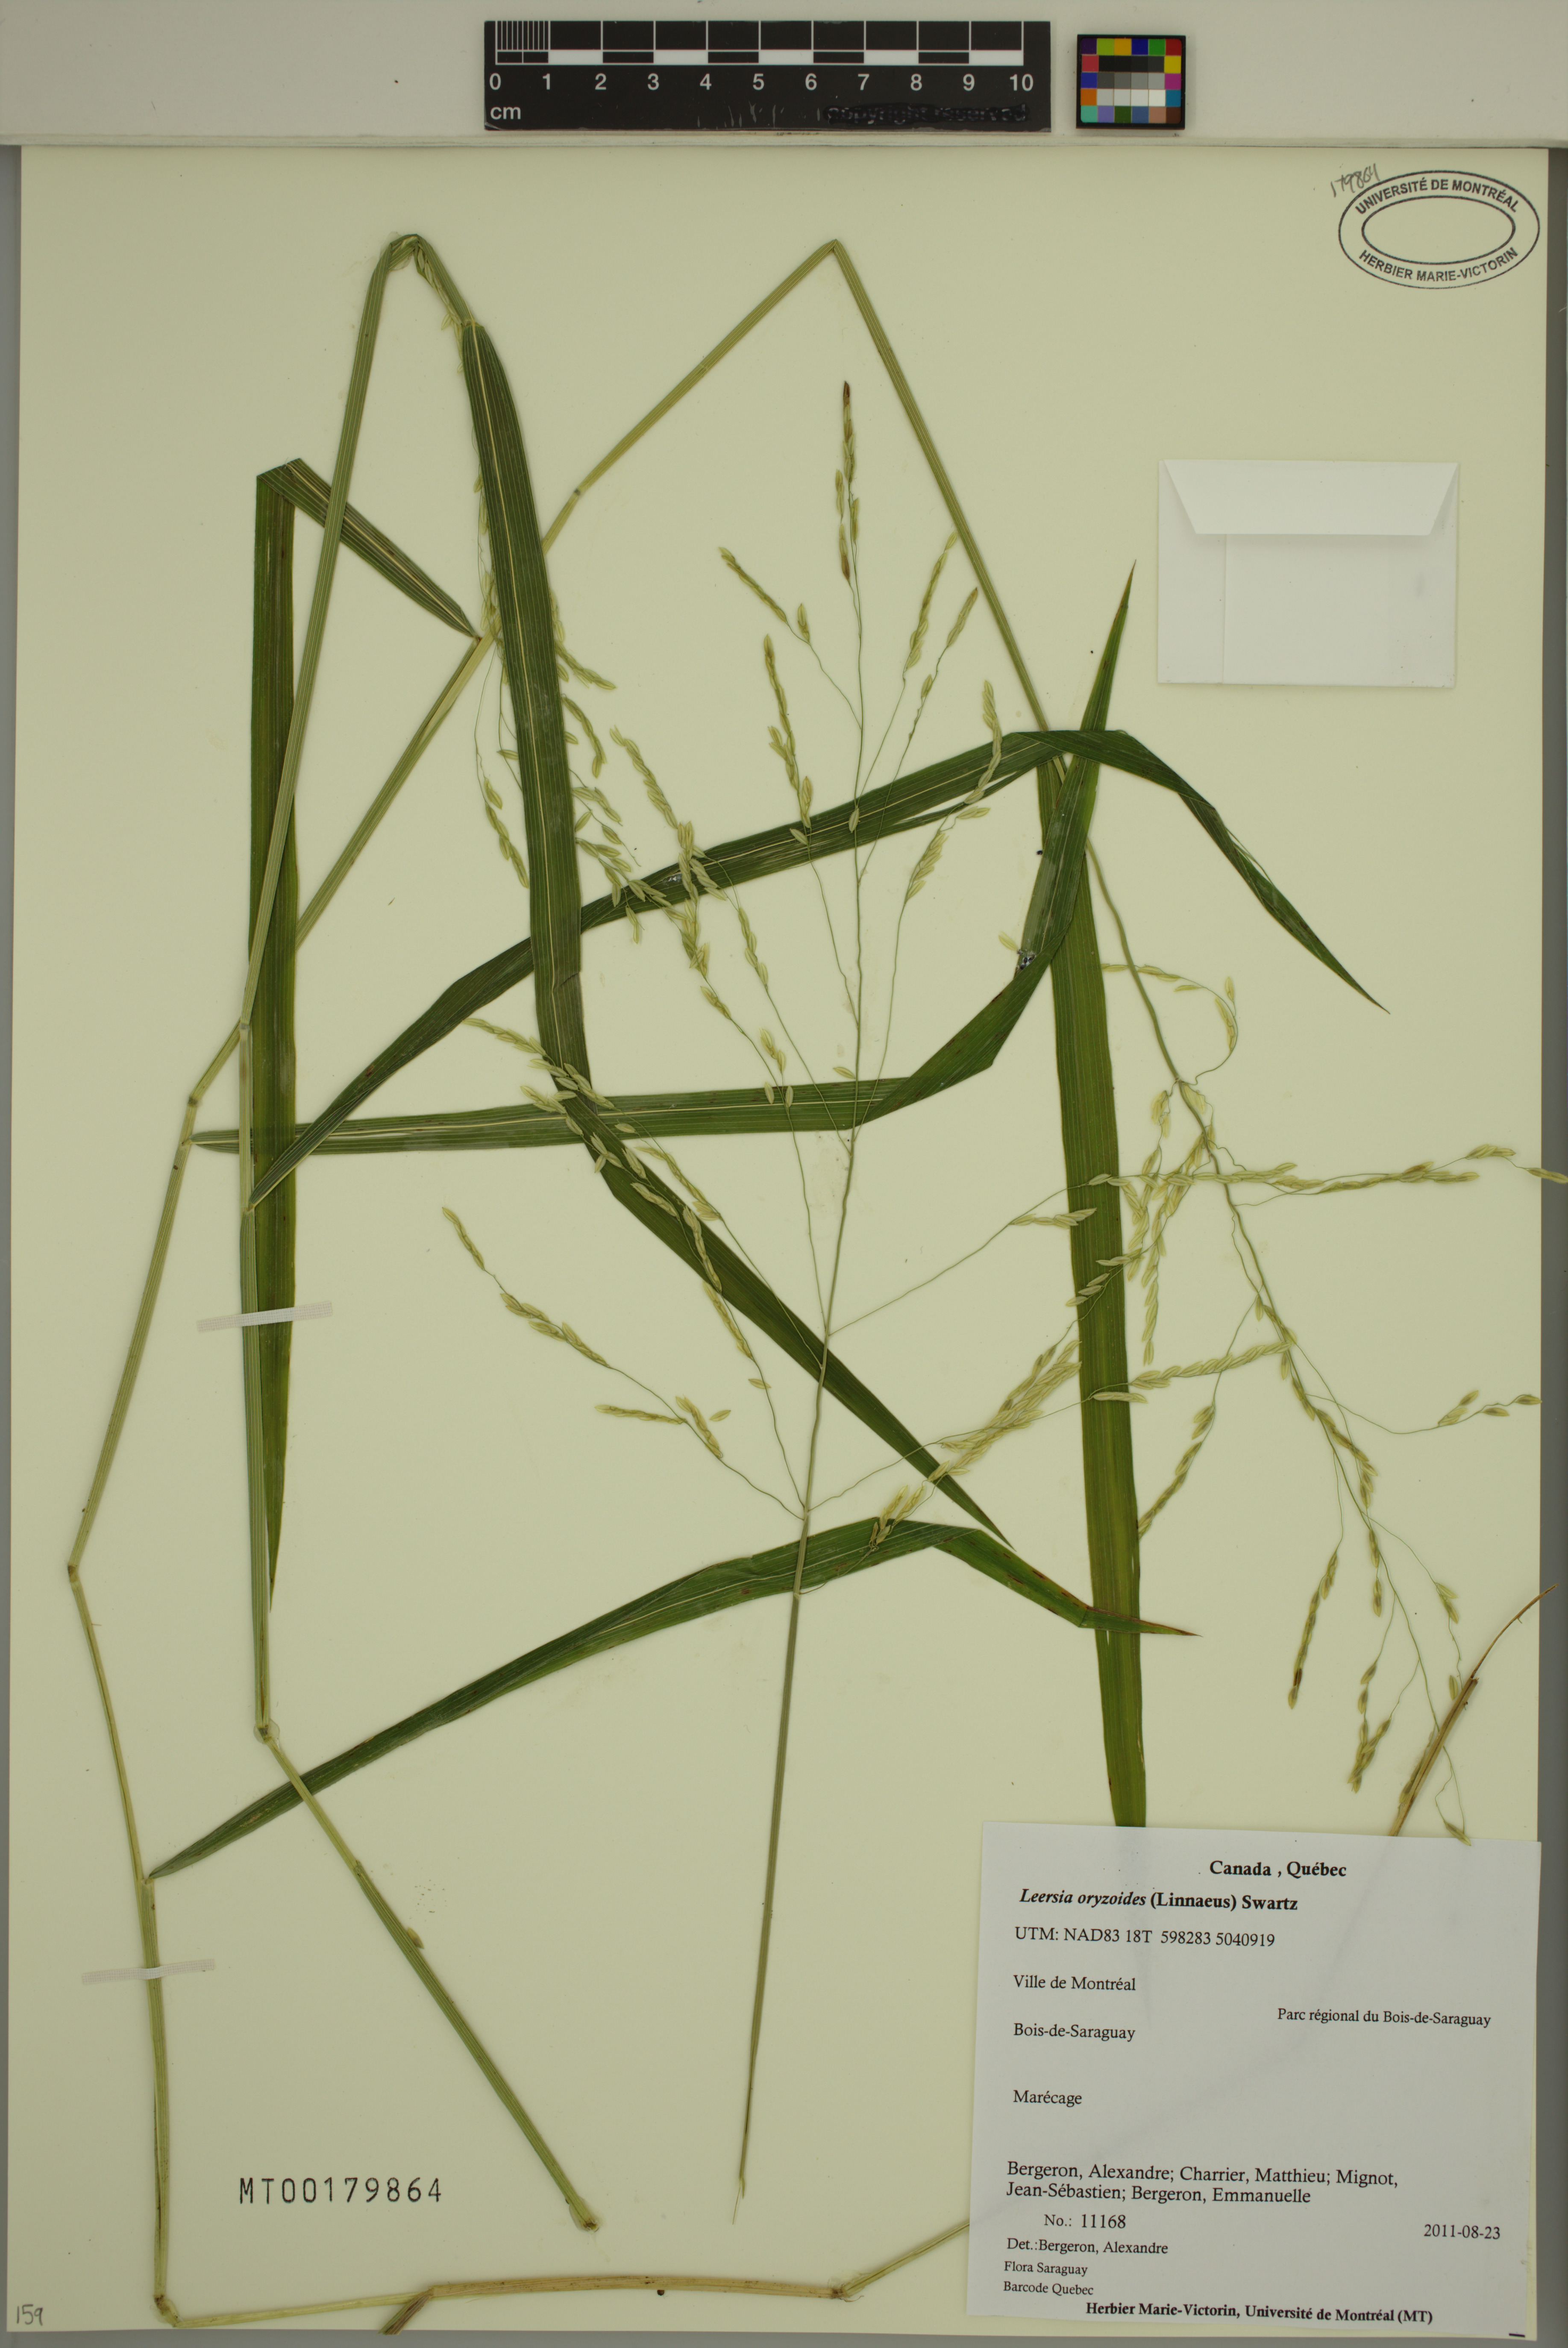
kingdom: Plantae
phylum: Tracheophyta
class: Liliopsida
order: Poales
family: Poaceae
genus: Leersia
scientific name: Leersia oryzoides
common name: Cut-grass
